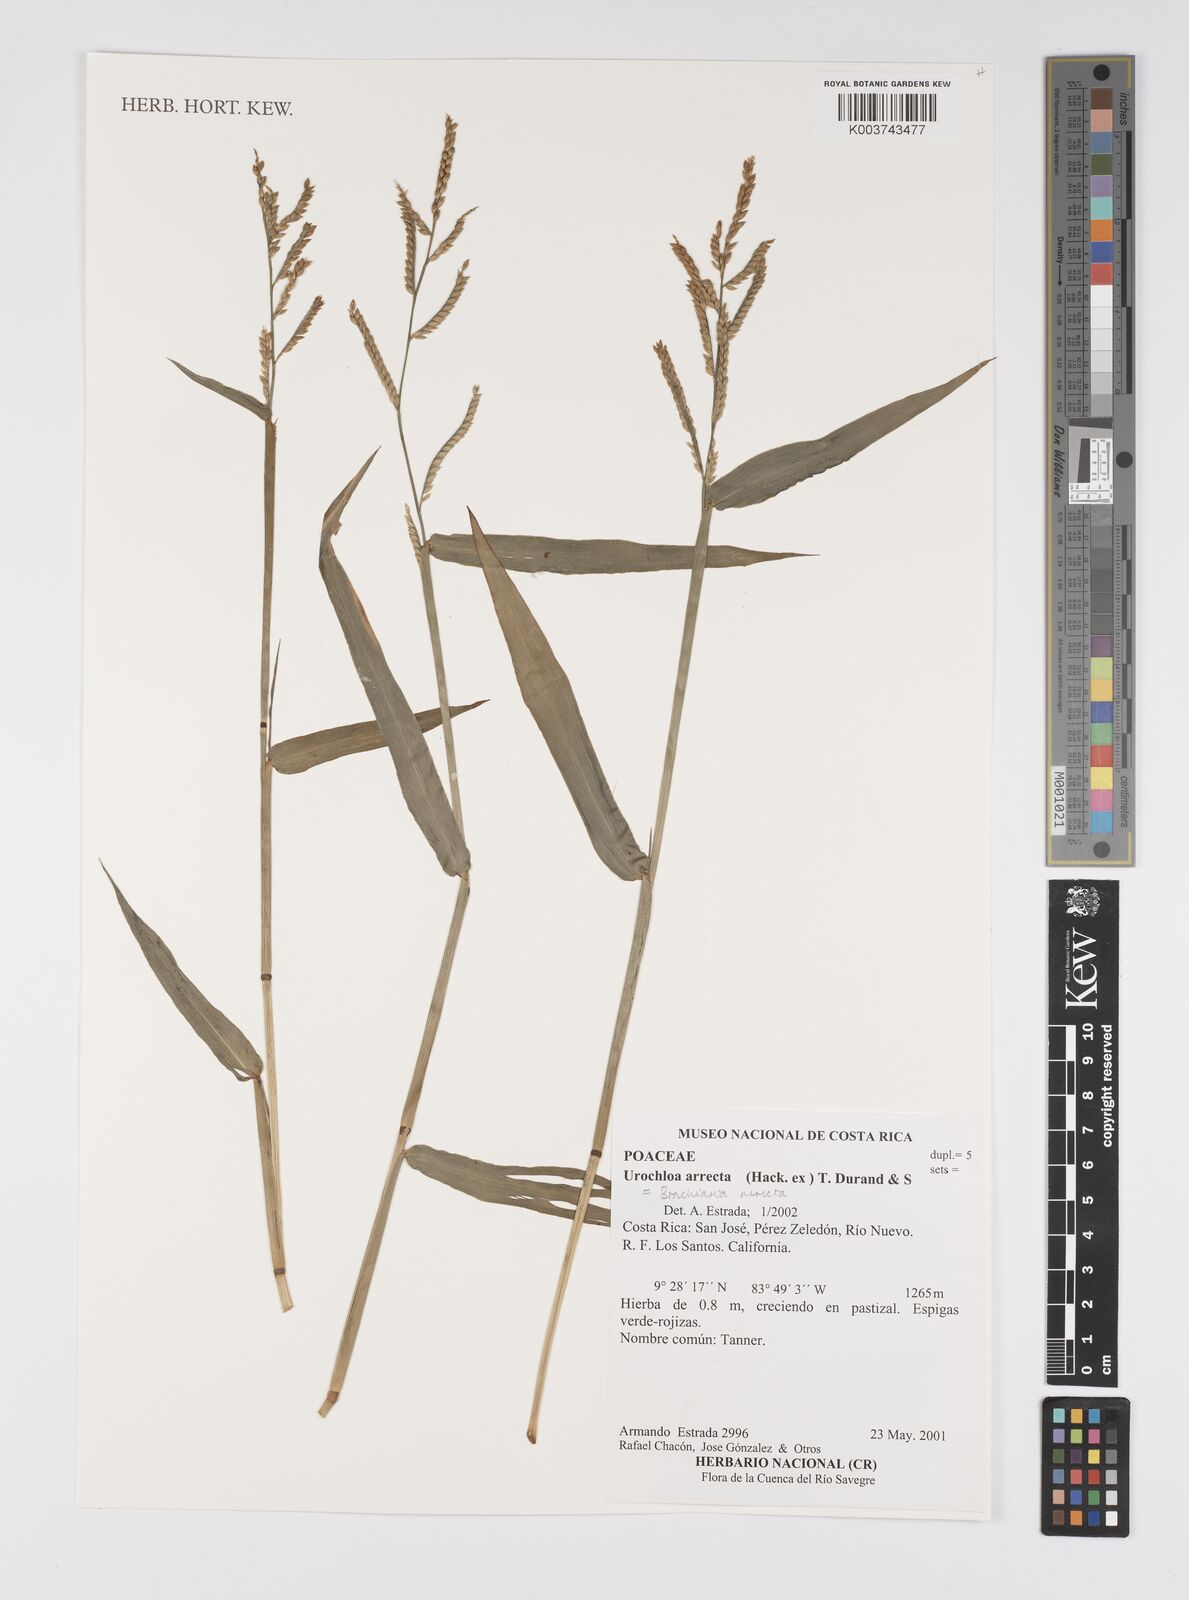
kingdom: Plantae
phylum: Tracheophyta
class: Liliopsida
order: Poales
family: Poaceae
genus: Urochloa
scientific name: Urochloa arrecta
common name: African signalgrass
